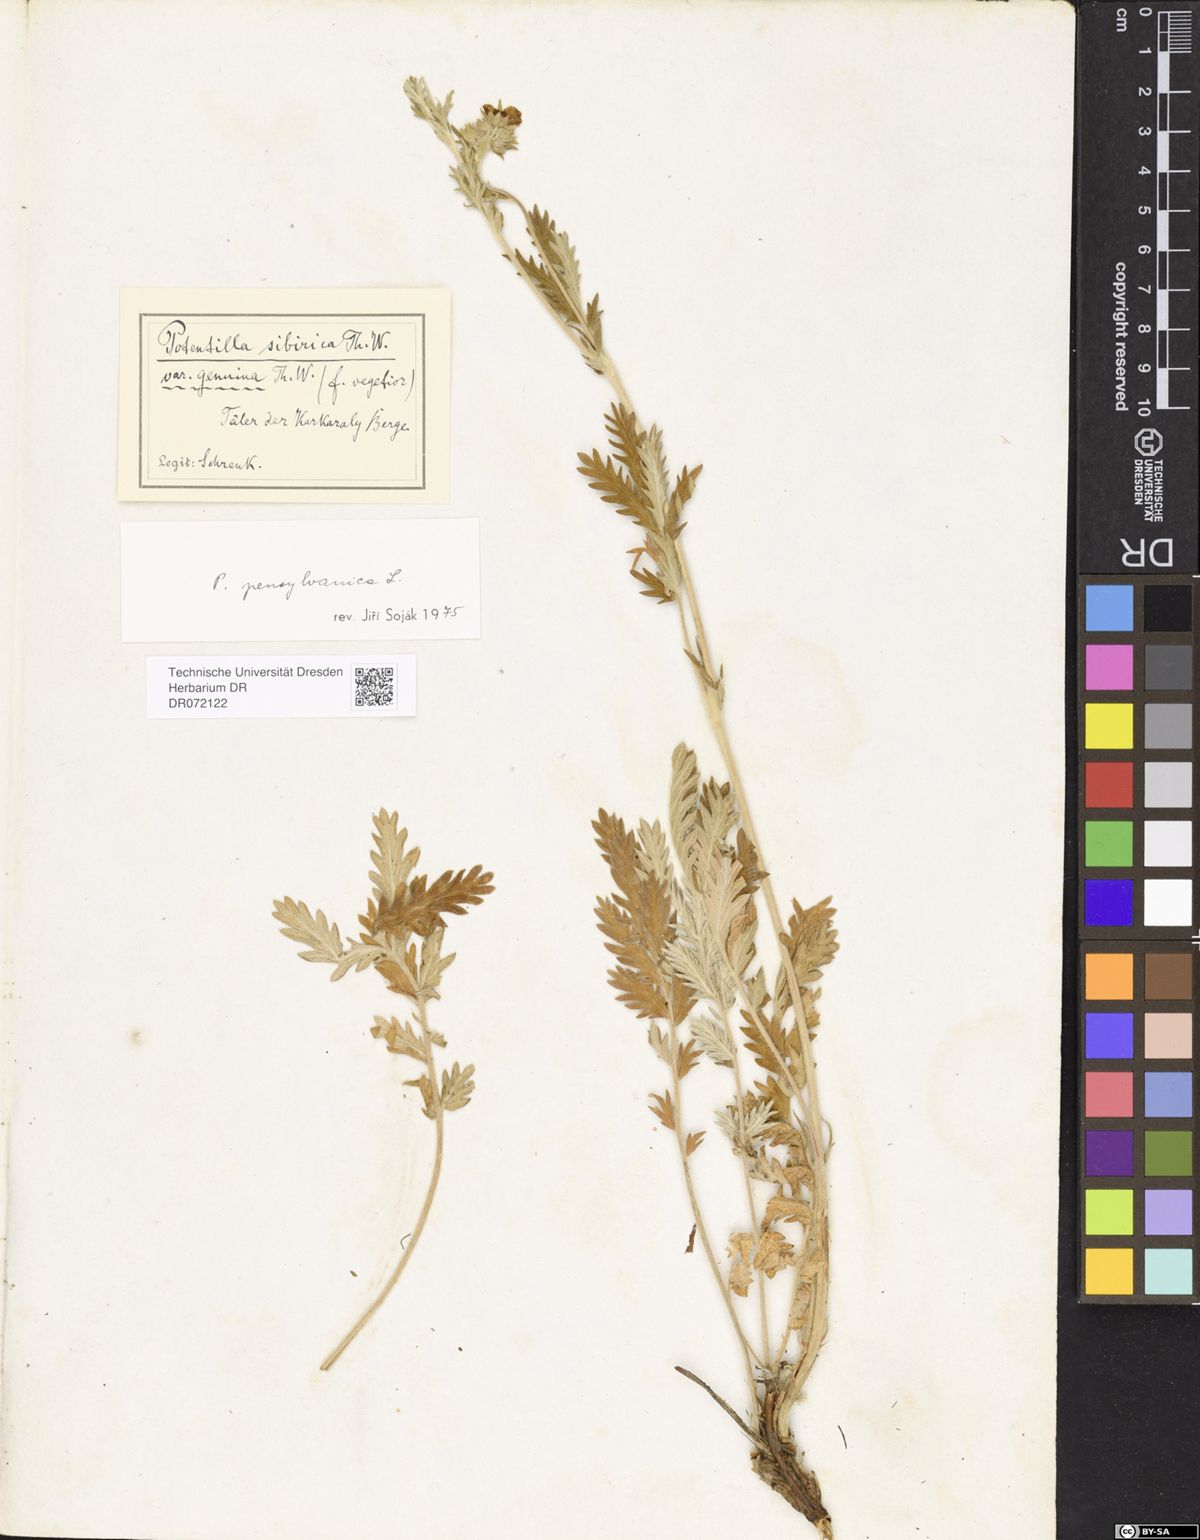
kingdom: Plantae
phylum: Tracheophyta
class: Magnoliopsida
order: Rosales
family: Rosaceae
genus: Potentilla
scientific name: Potentilla pensylvanica
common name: Pennsylvania cinquefoil
